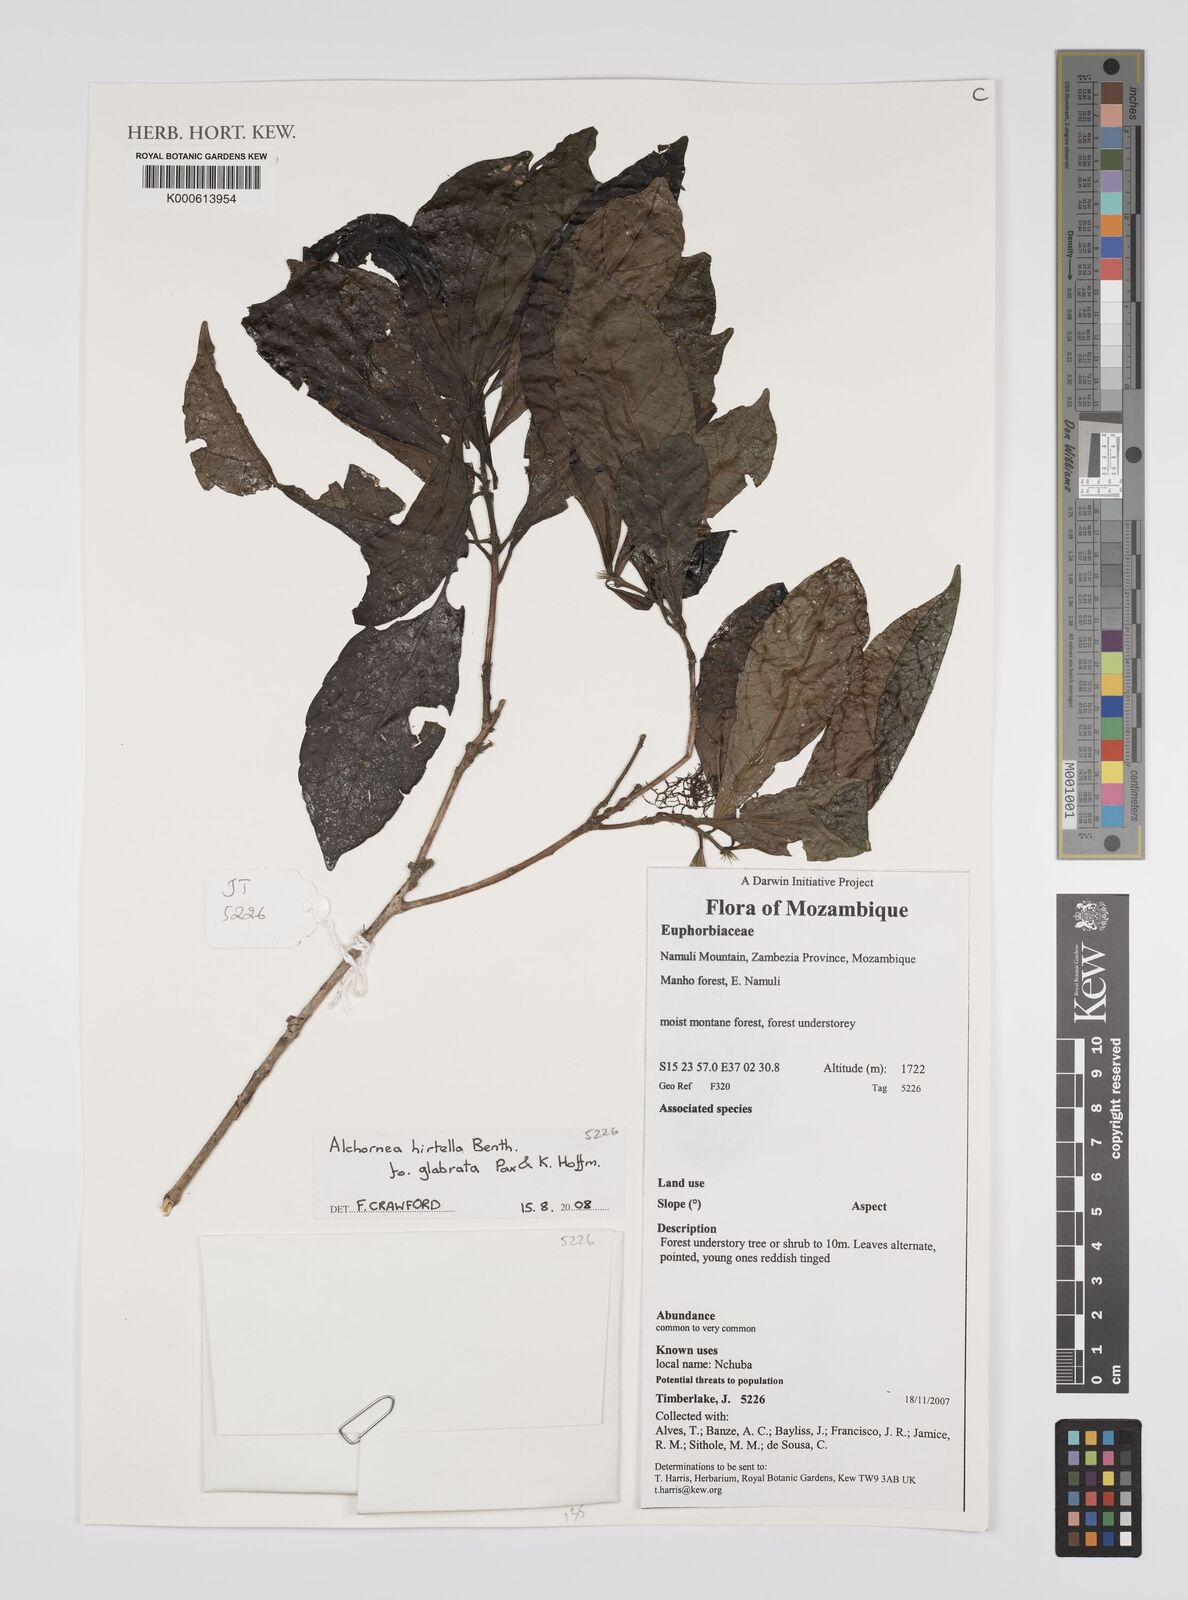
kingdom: Plantae
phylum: Tracheophyta
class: Magnoliopsida
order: Malpighiales
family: Euphorbiaceae
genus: Alchornea
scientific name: Alchornea hirtella
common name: Forest bead-string
